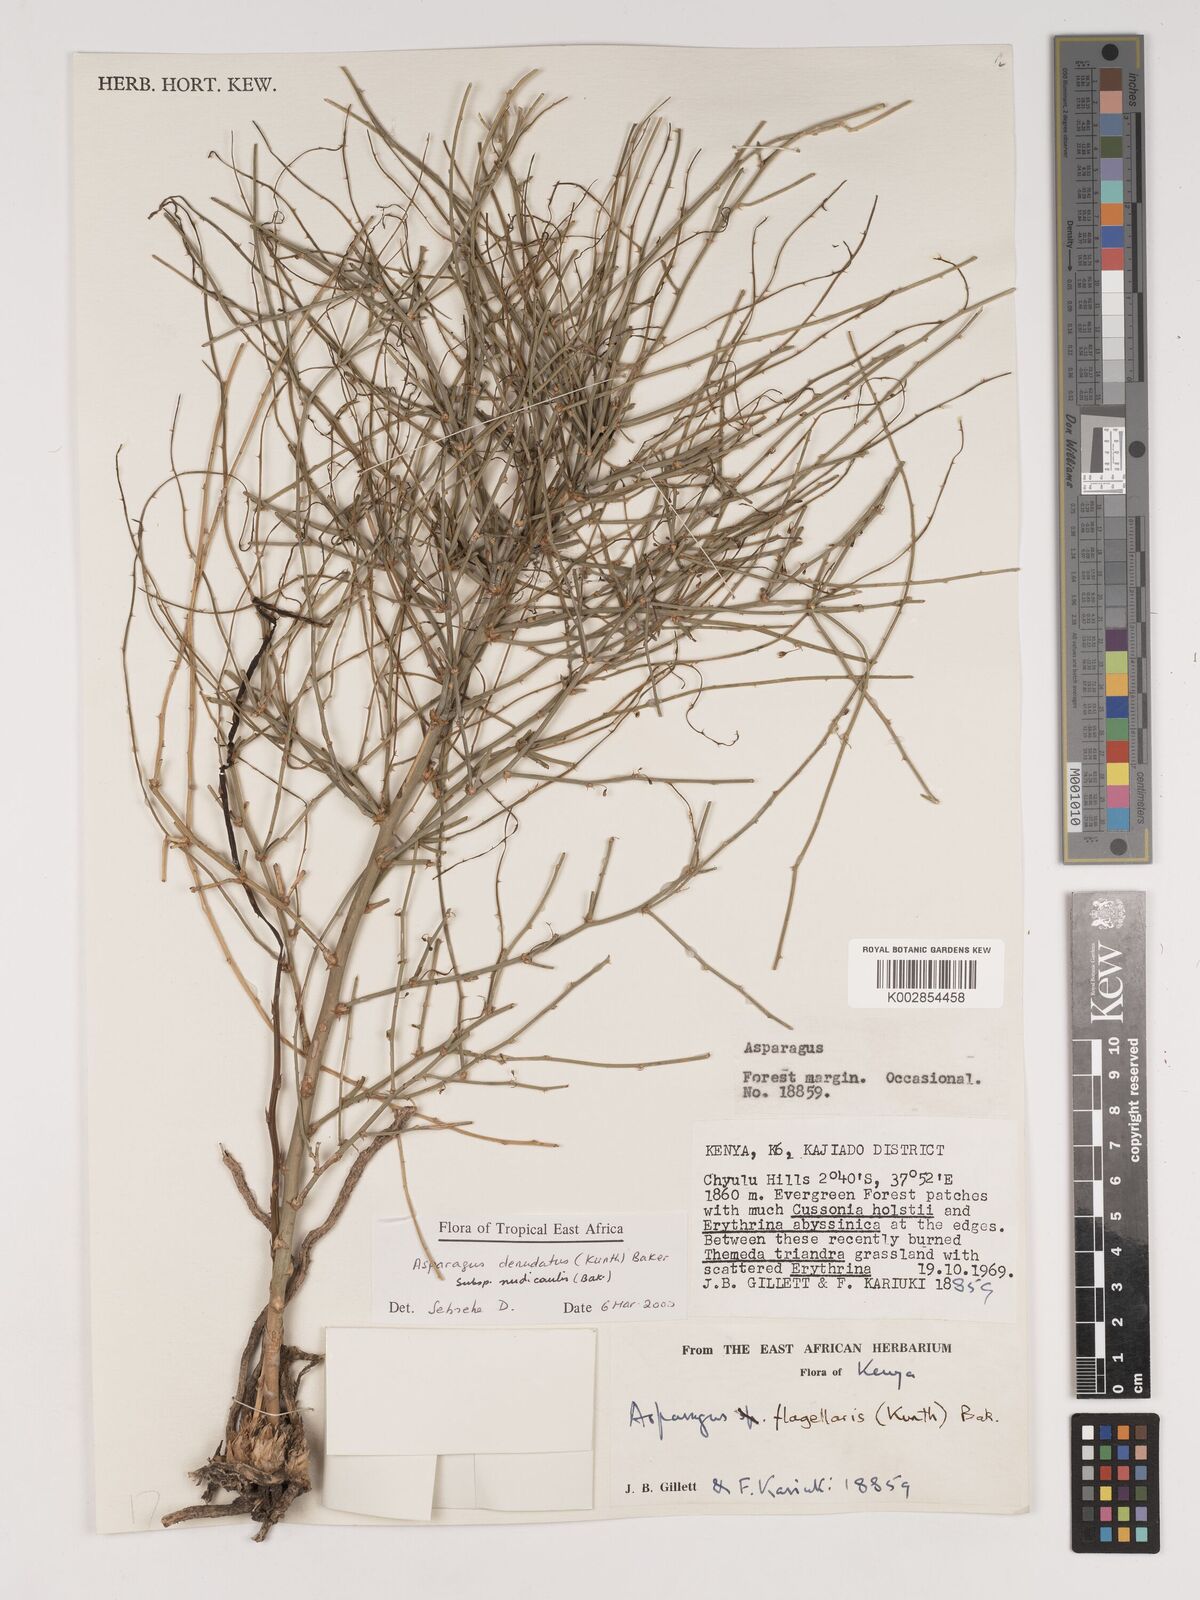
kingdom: Plantae
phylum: Tracheophyta
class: Liliopsida
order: Asparagales
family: Asparagaceae
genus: Asparagus
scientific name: Asparagus denudatus
